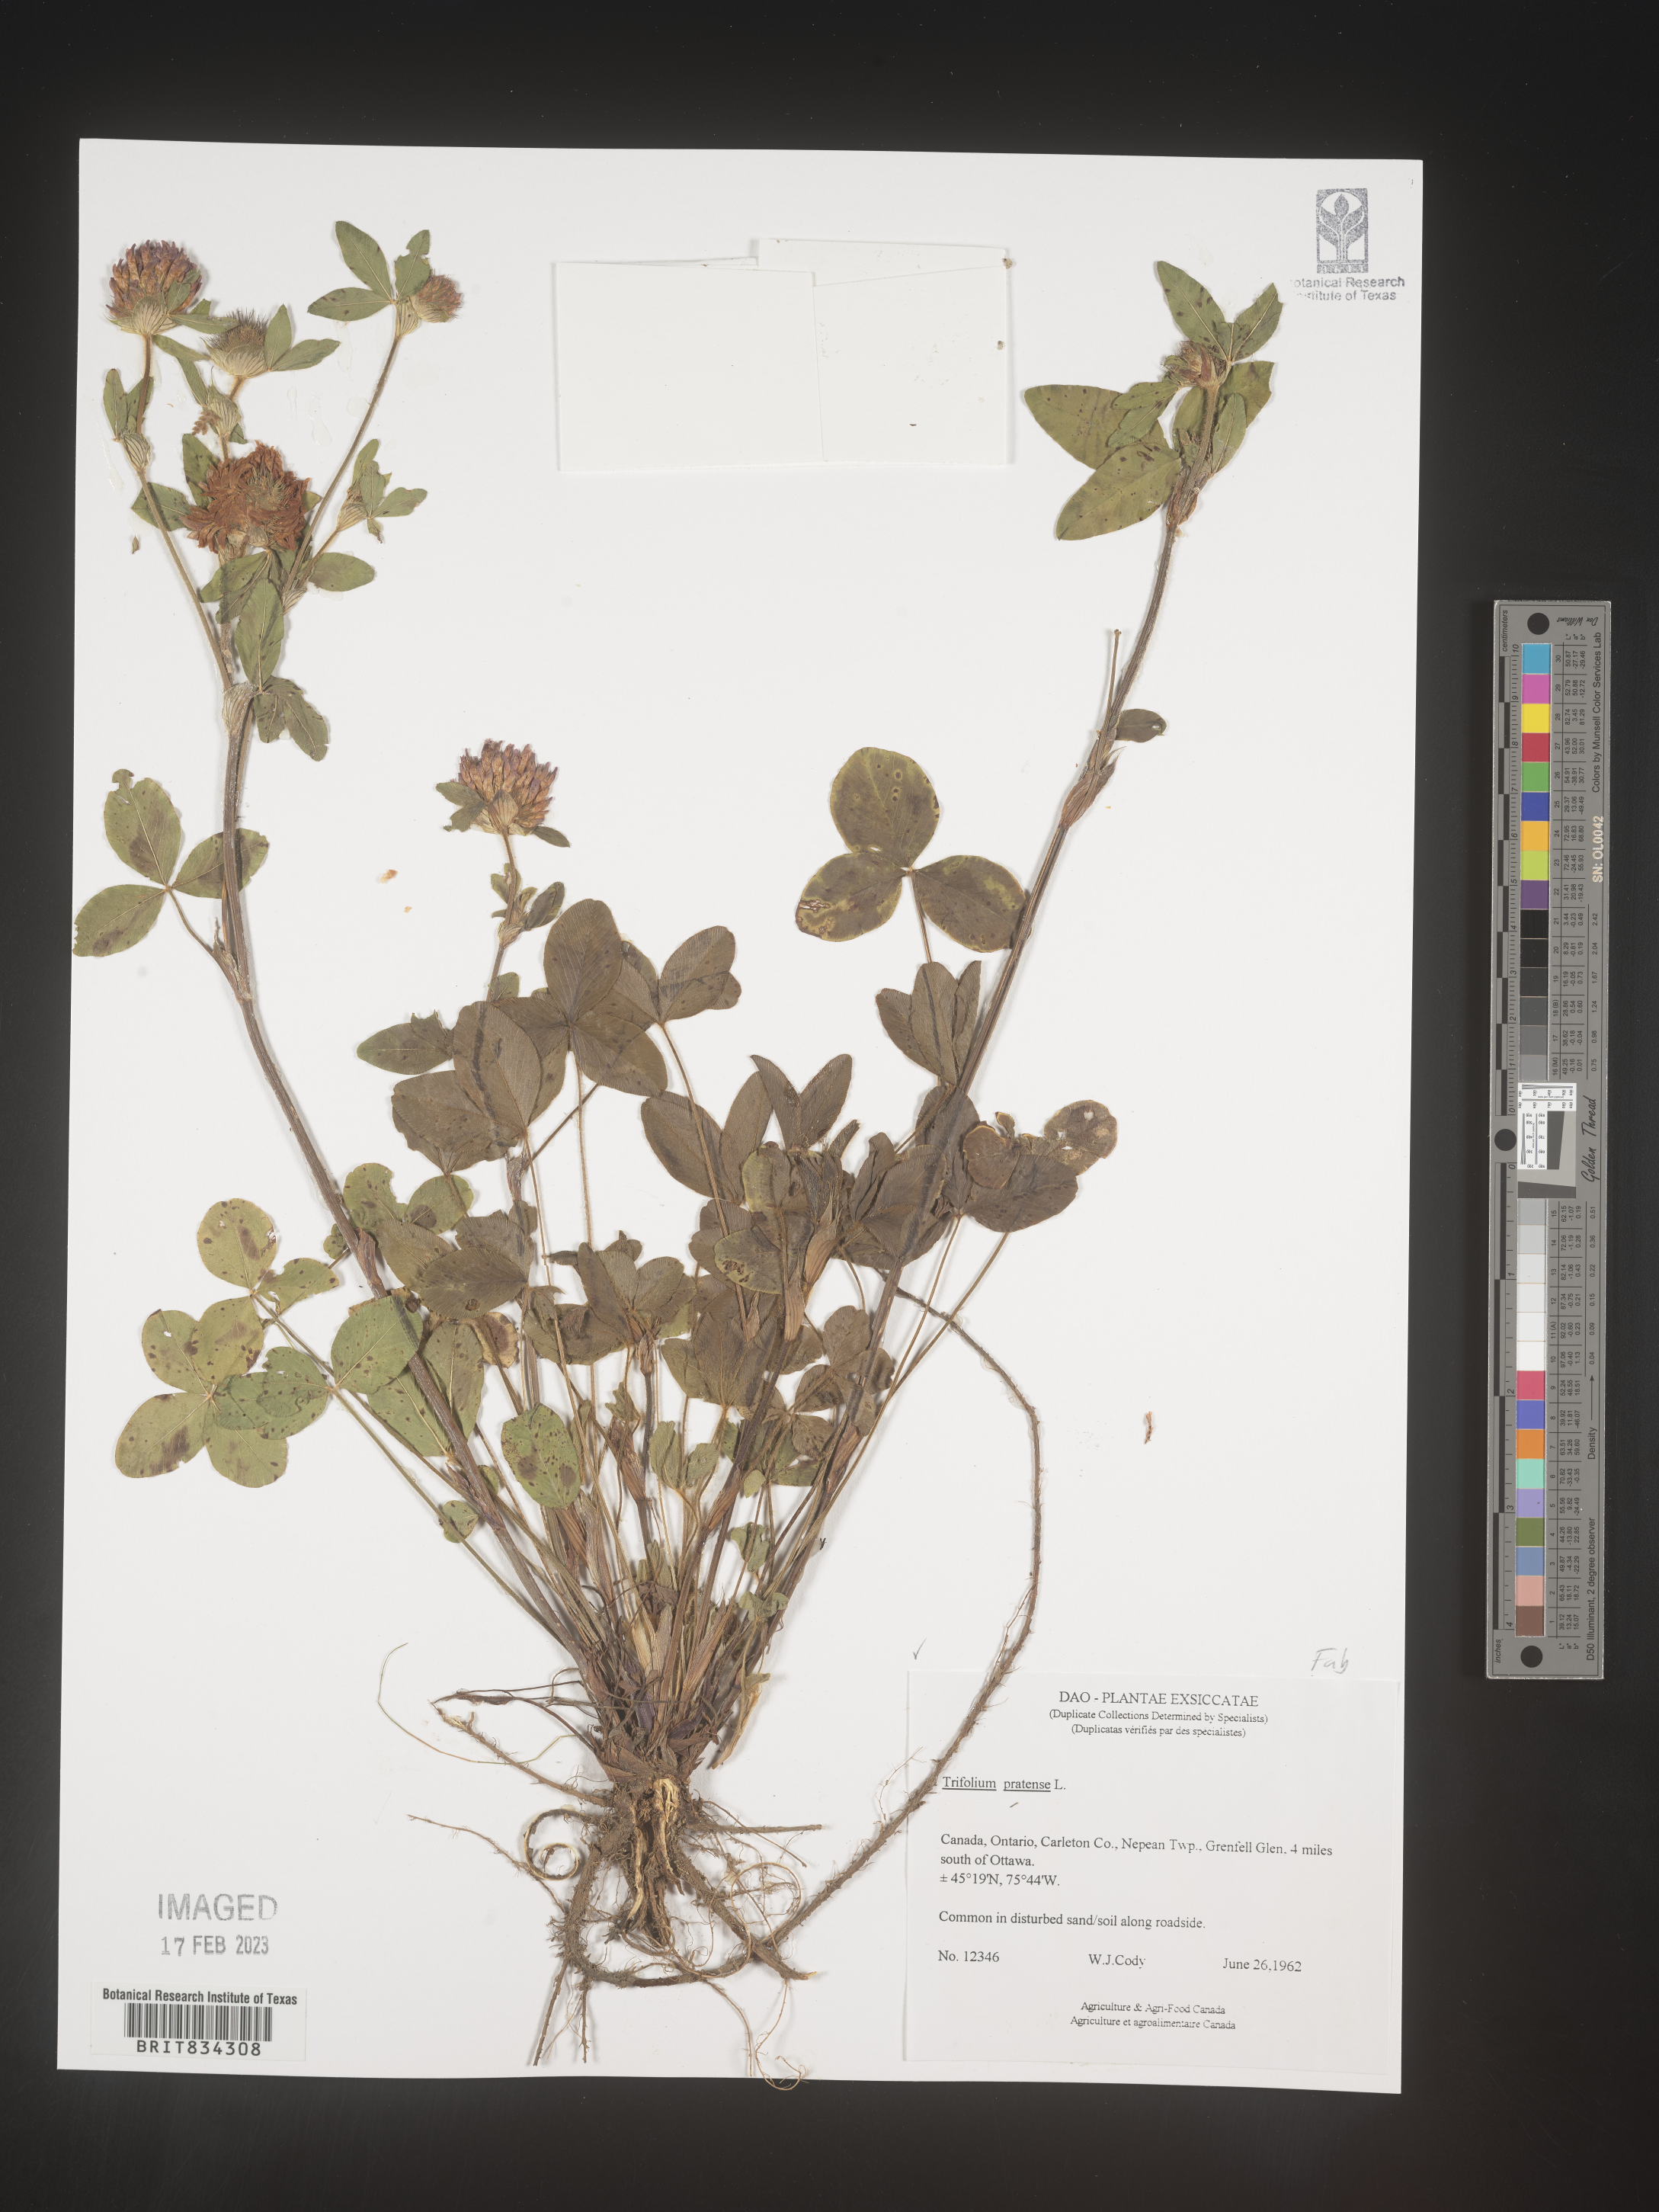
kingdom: Plantae
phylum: Tracheophyta
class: Magnoliopsida
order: Fabales
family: Fabaceae
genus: Trifolium
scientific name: Trifolium pratense
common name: Red clover
